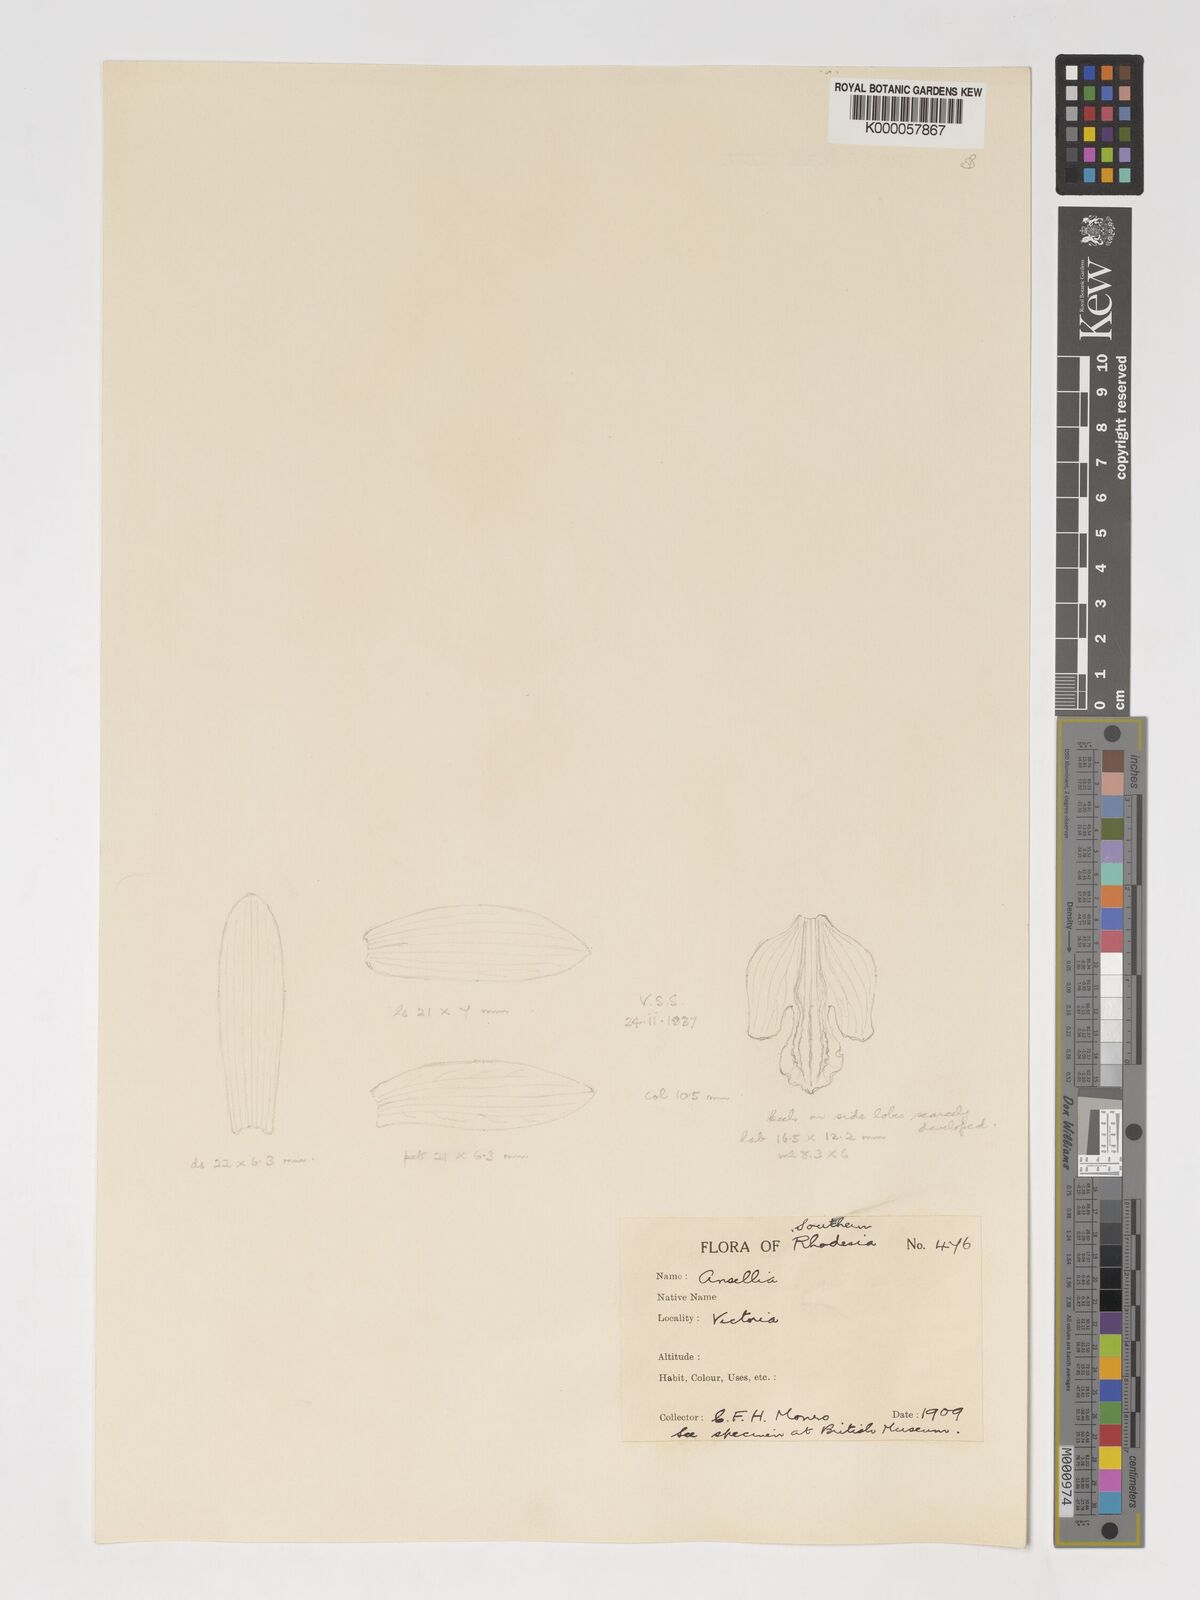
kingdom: Plantae
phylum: Tracheophyta
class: Liliopsida
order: Asparagales
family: Orchidaceae
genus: Ansellia
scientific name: Ansellia africana
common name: African ansellia
